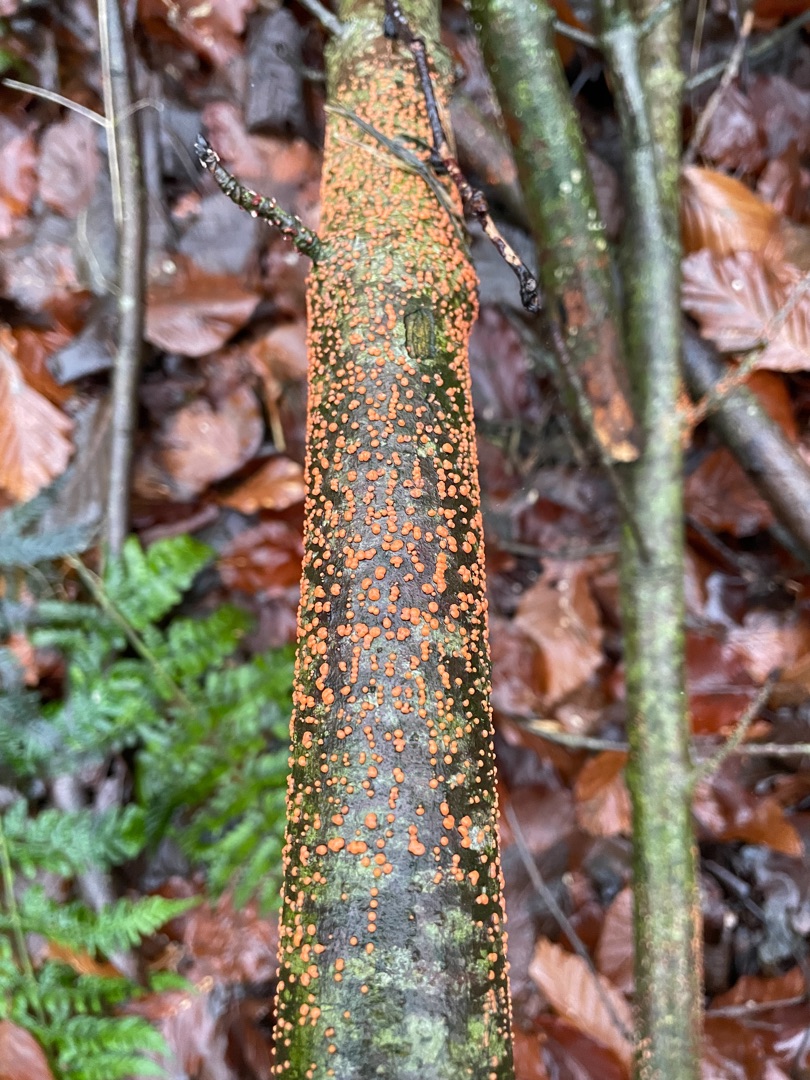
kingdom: Fungi
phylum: Ascomycota
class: Sordariomycetes
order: Hypocreales
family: Nectriaceae
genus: Nectria
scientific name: Nectria cinnabarina
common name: Almindelig cinnobersvamp
